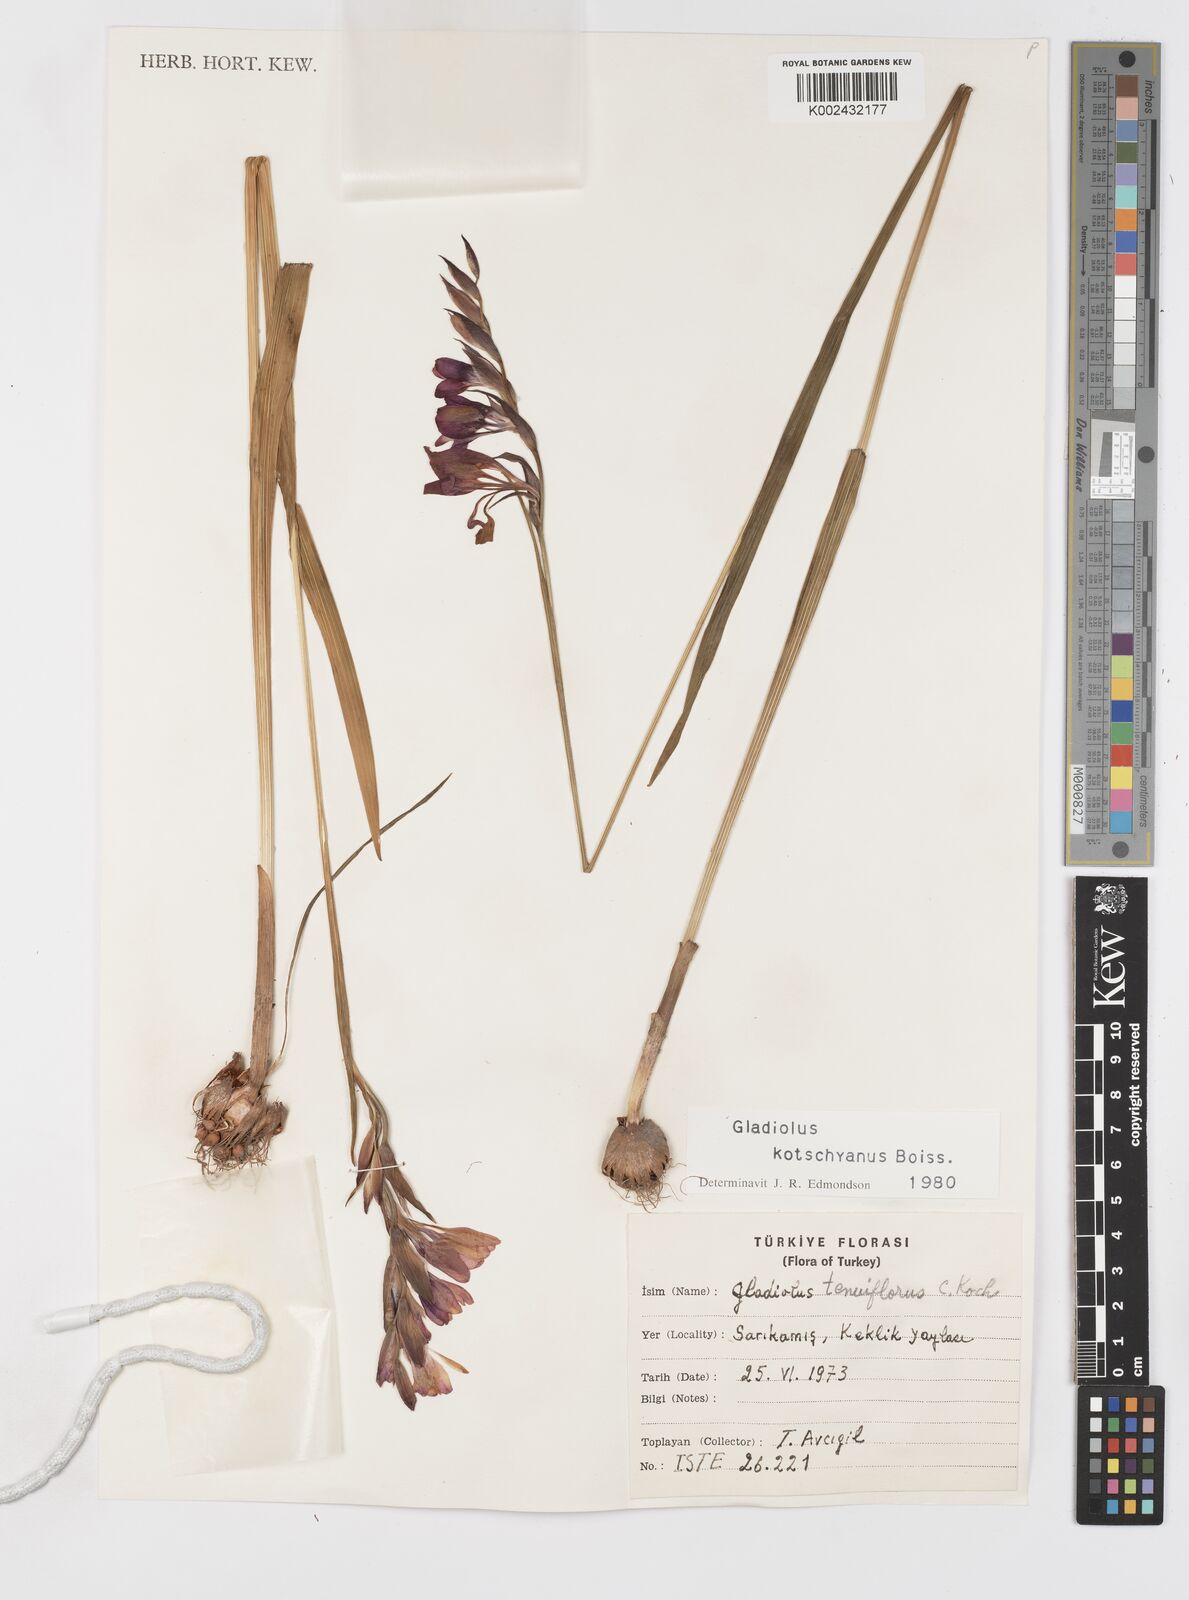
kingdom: Plantae
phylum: Tracheophyta
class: Liliopsida
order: Asparagales
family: Iridaceae
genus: Gladiolus
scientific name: Gladiolus imbricatus
